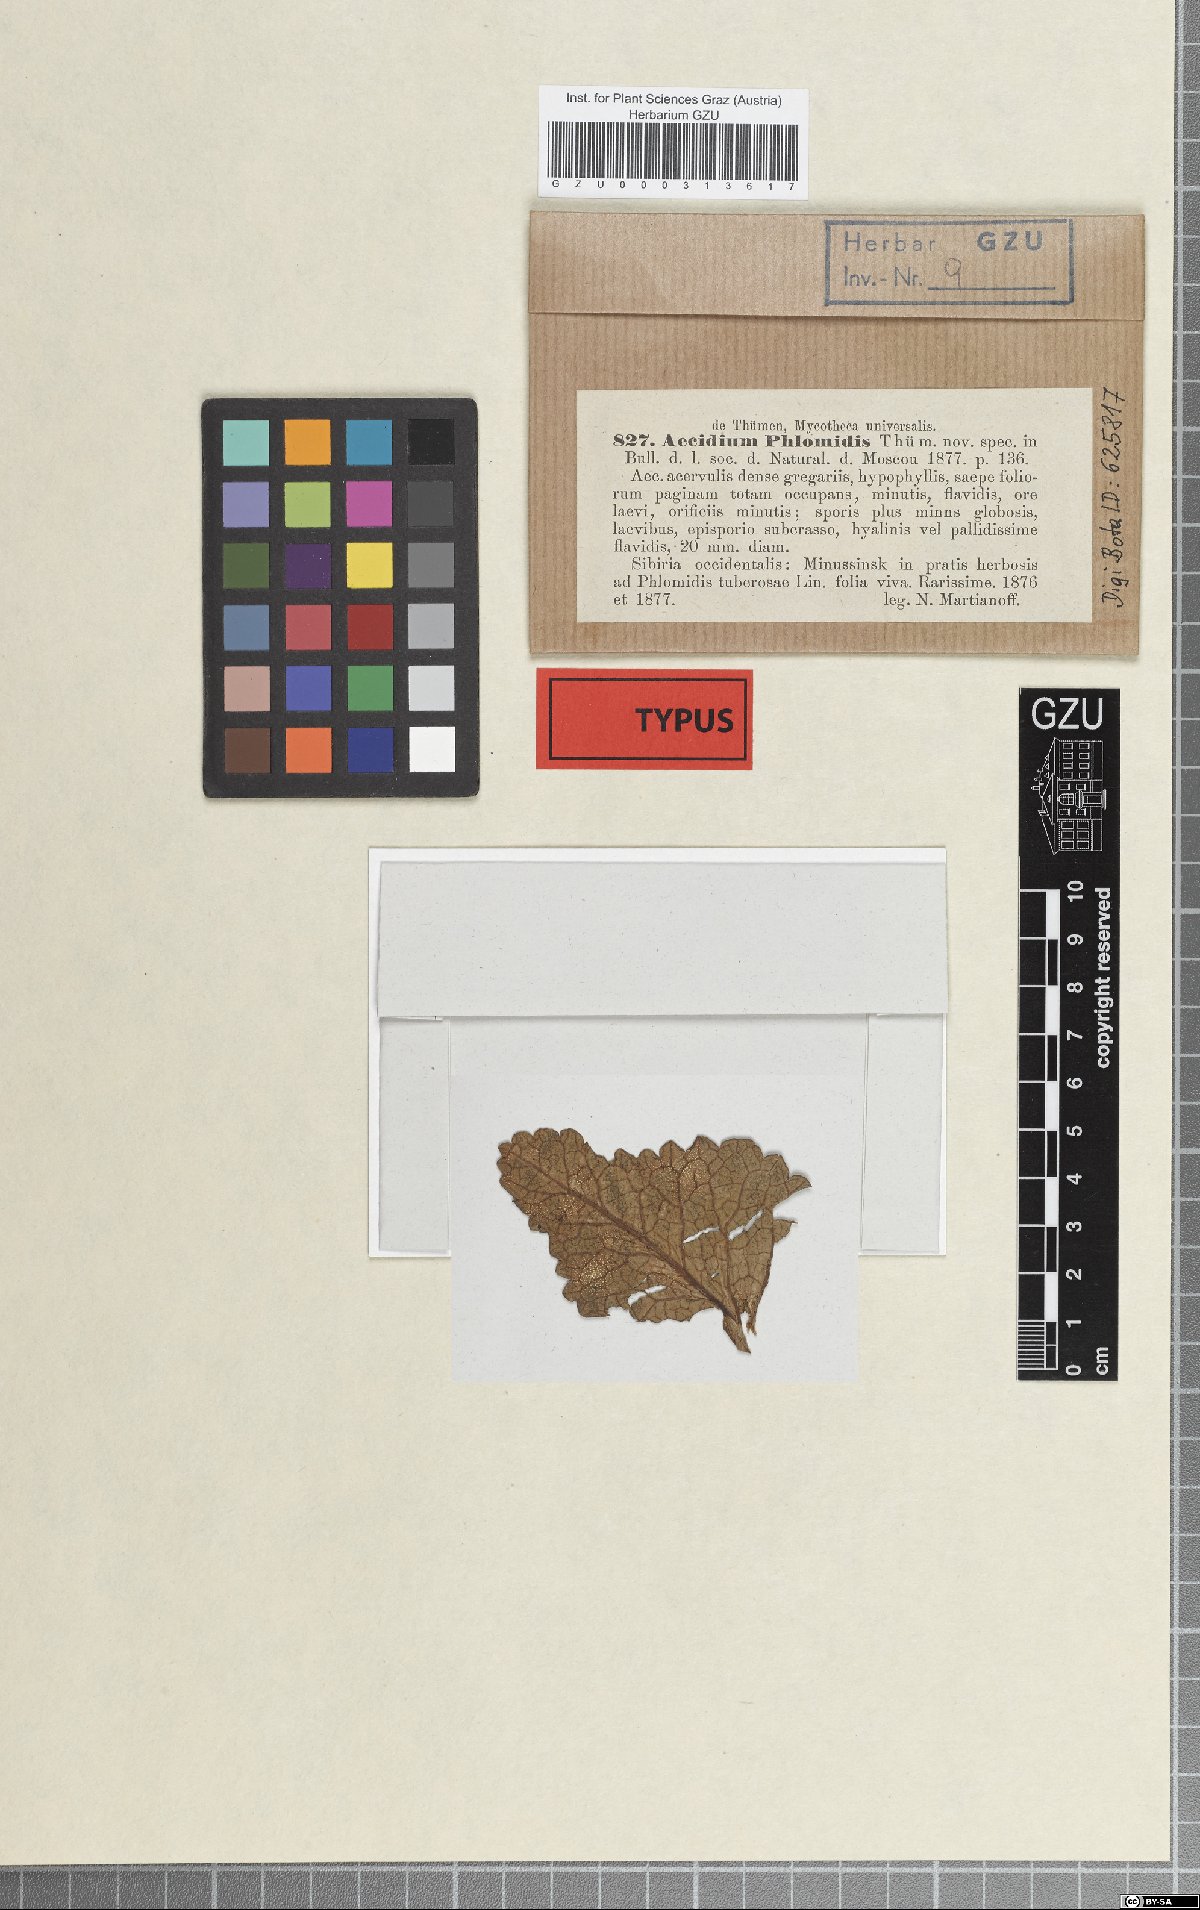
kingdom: Fungi
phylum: Basidiomycota
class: Pucciniomycetes
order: Pucciniales
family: Pucciniaceae
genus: Puccinia
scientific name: Puccinia phlomidis
